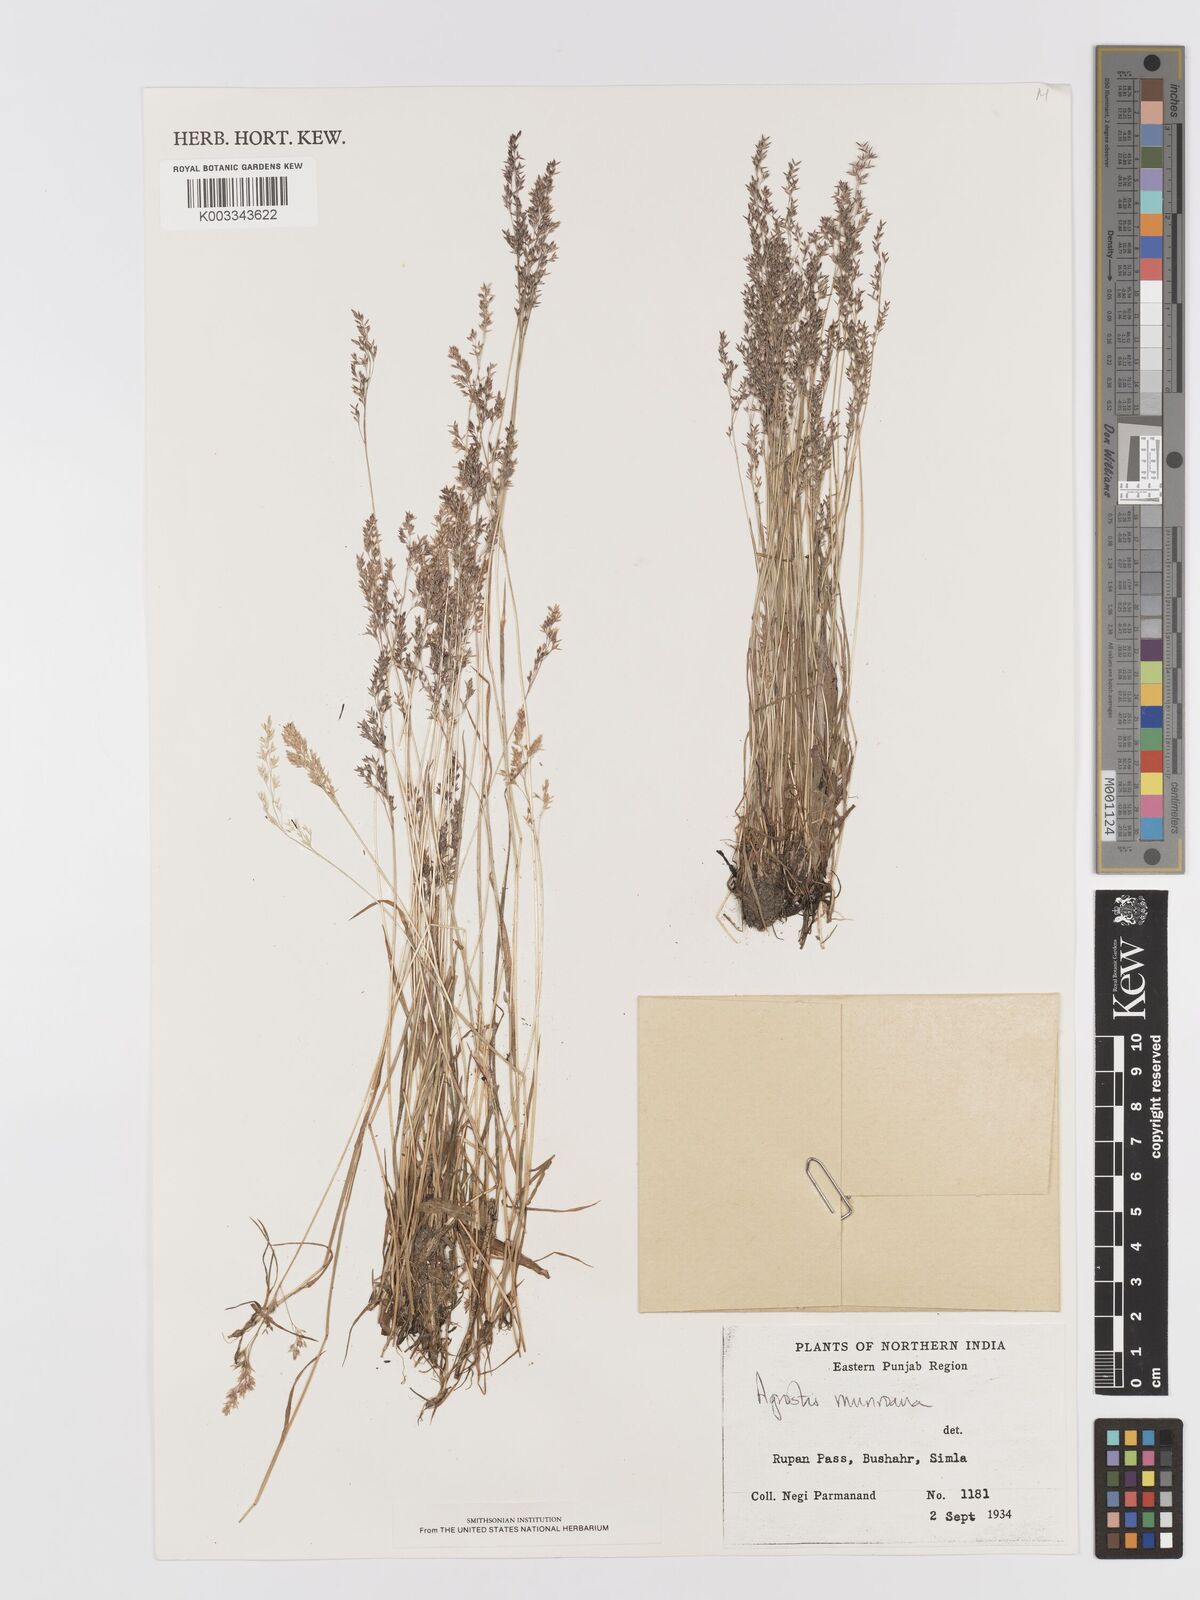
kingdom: Plantae
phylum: Tracheophyta
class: Liliopsida
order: Poales
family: Poaceae
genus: Agrostis
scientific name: Agrostis munroana
